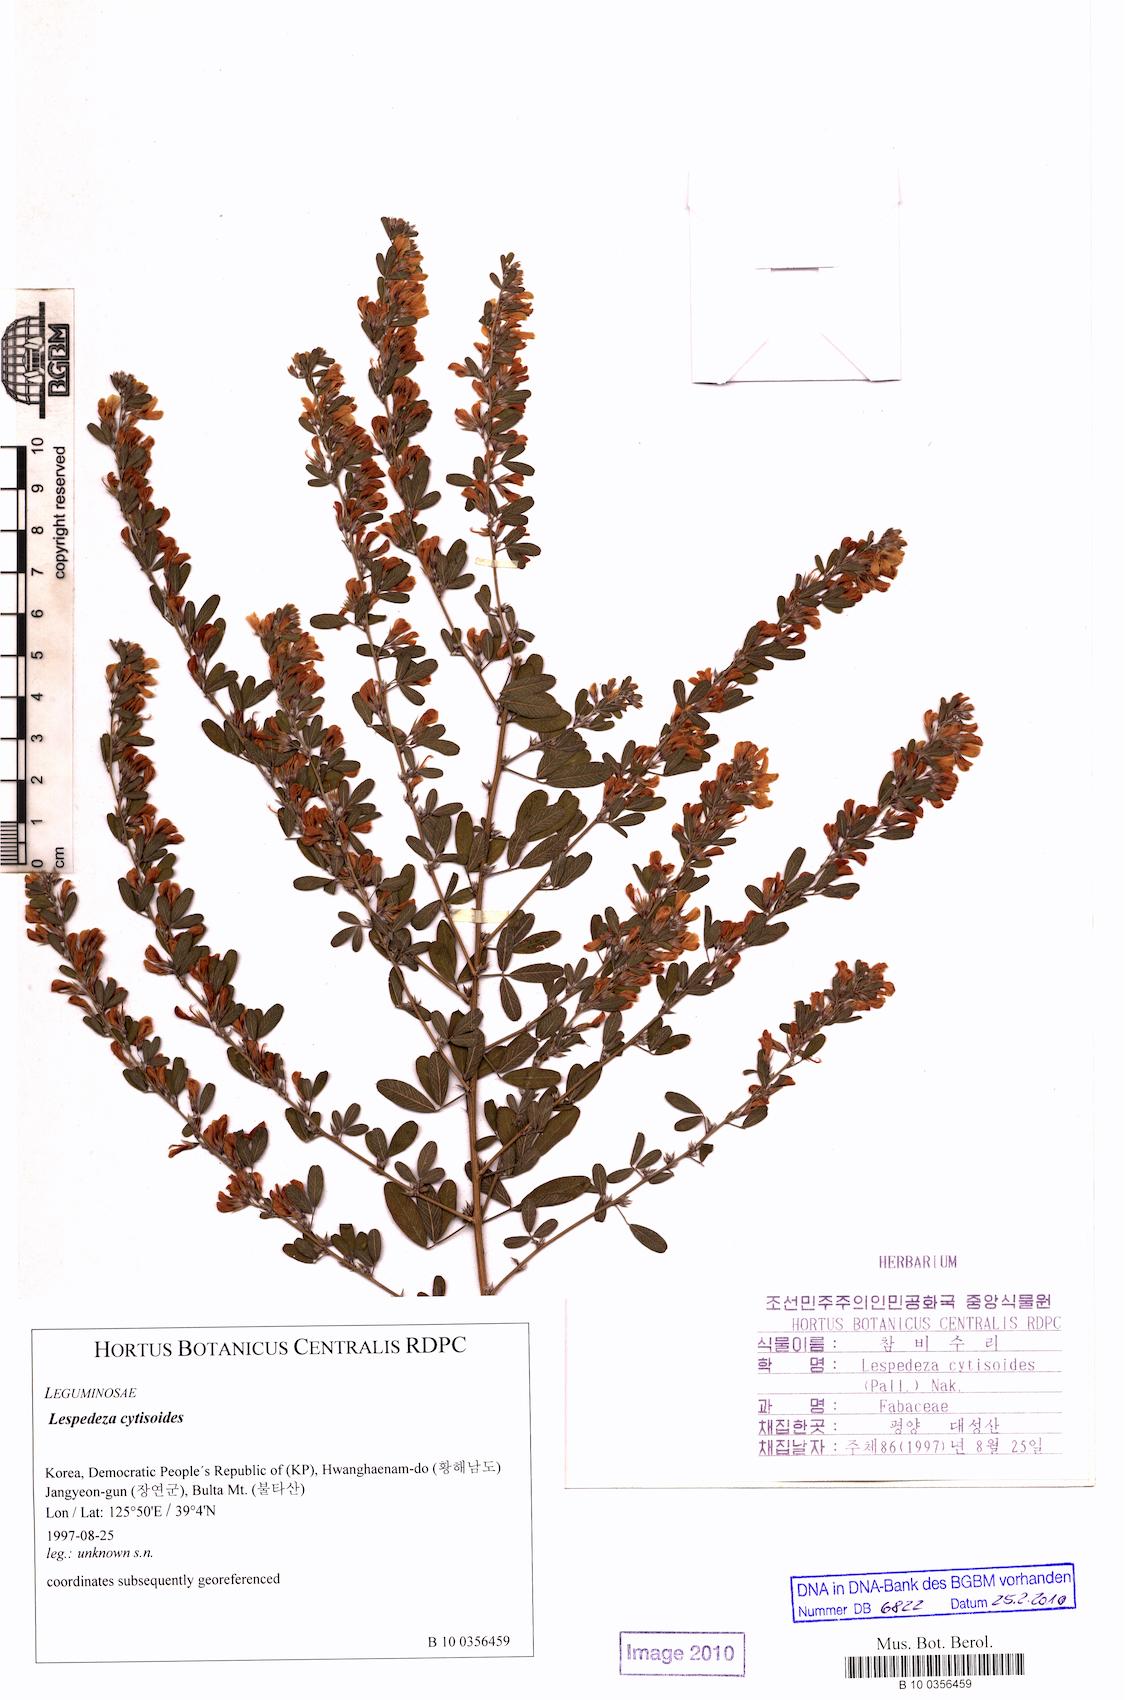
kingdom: Plantae
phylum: Tracheophyta
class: Magnoliopsida
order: Fabales
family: Fabaceae
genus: Campylotropis
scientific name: Campylotropis cytisoides
